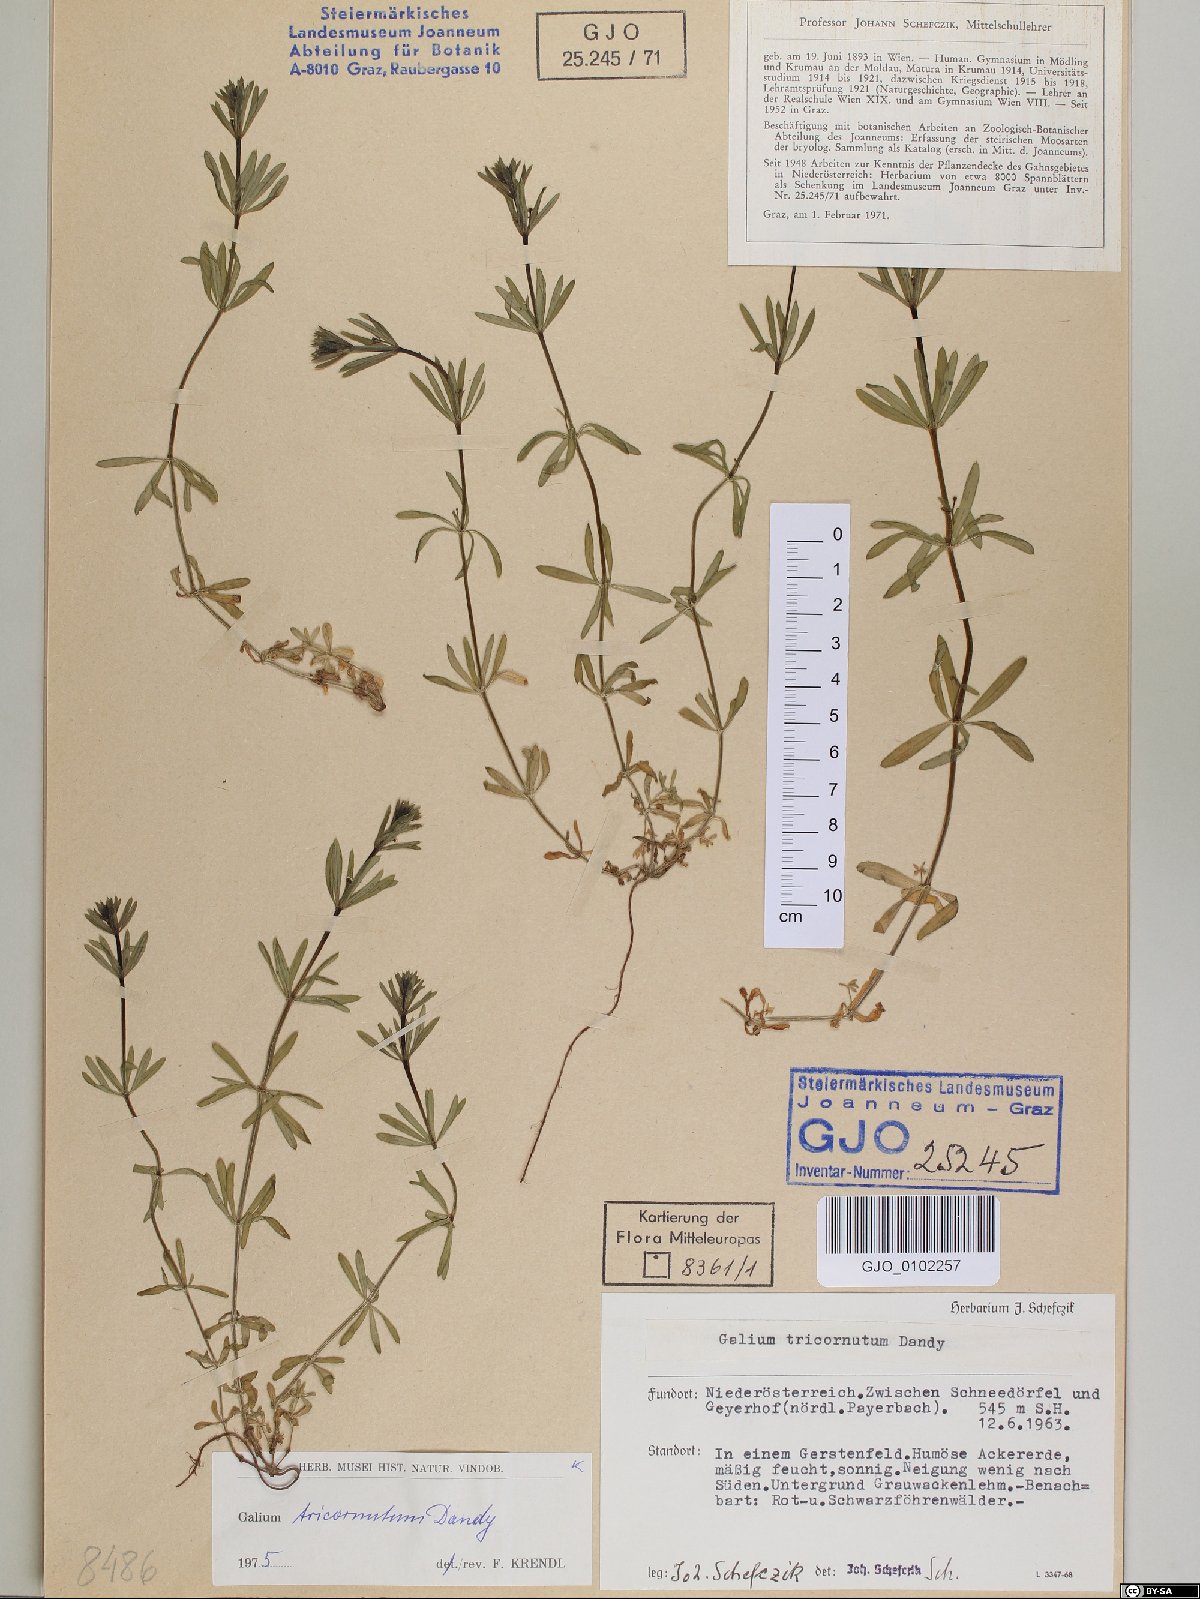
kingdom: Plantae
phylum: Tracheophyta
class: Magnoliopsida
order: Gentianales
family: Rubiaceae
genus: Galium
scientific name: Galium tricornutum
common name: Corn cleavers
